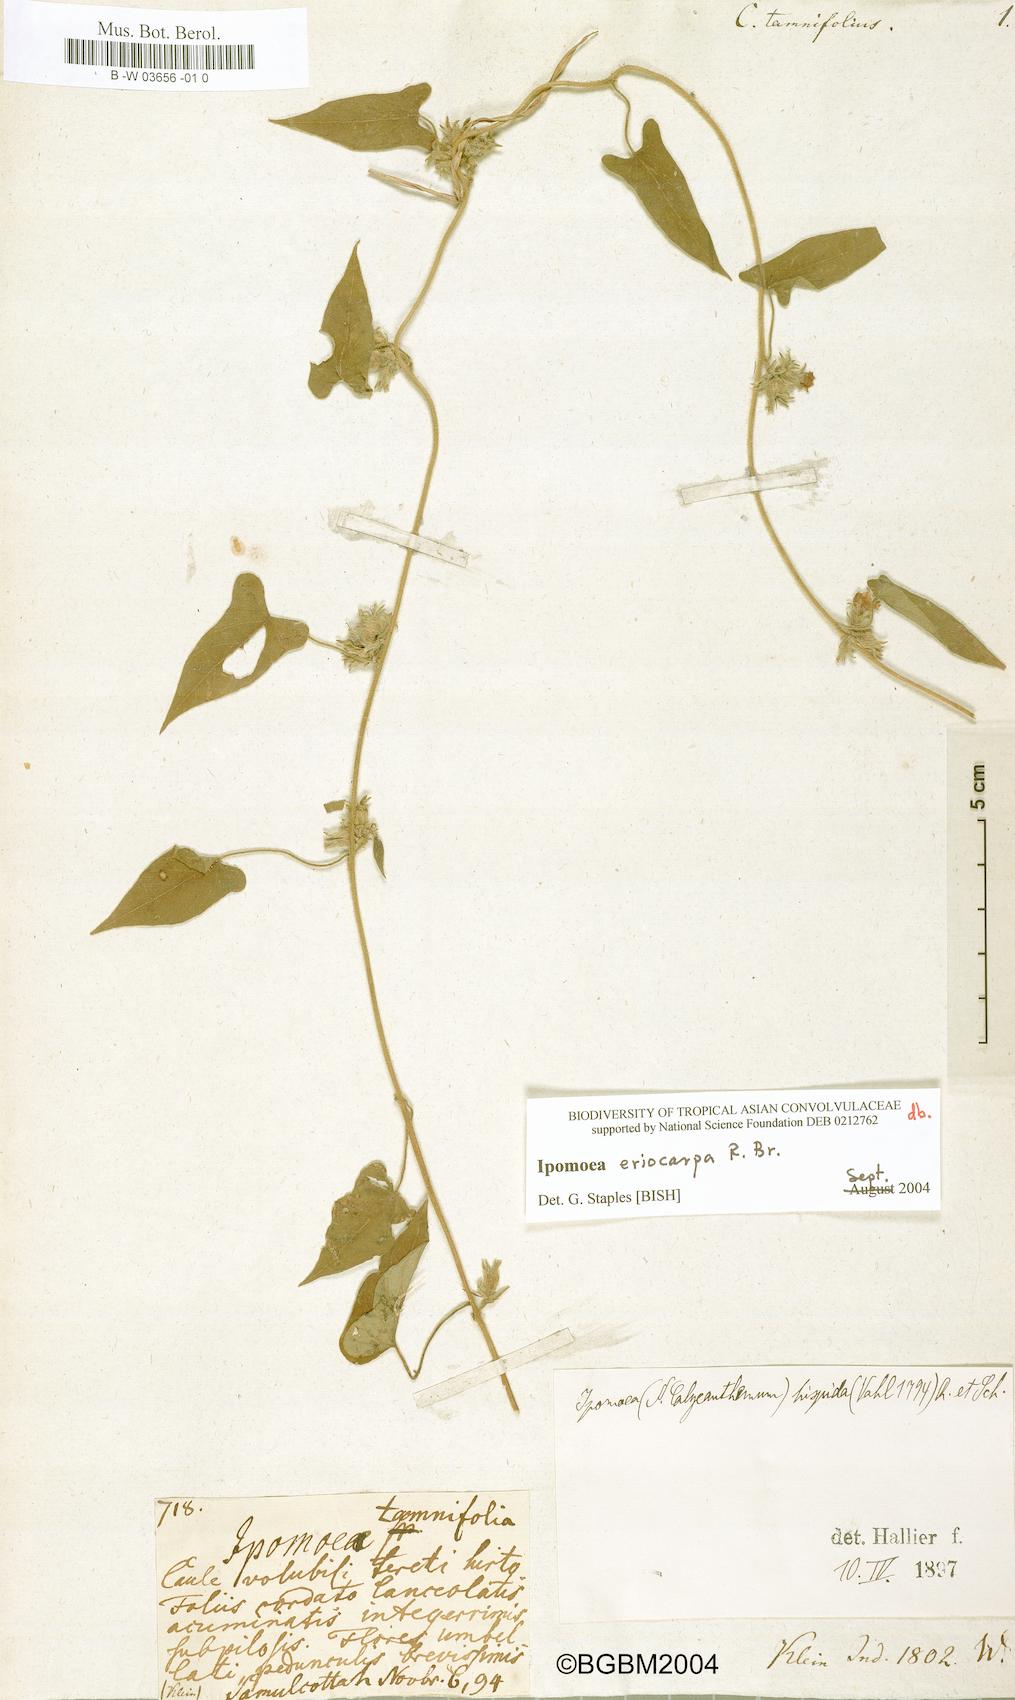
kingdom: Plantae
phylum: Tracheophyta
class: Magnoliopsida
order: Solanales
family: Convolvulaceae
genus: Convolvulus
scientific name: Convolvulus tamnifolius
